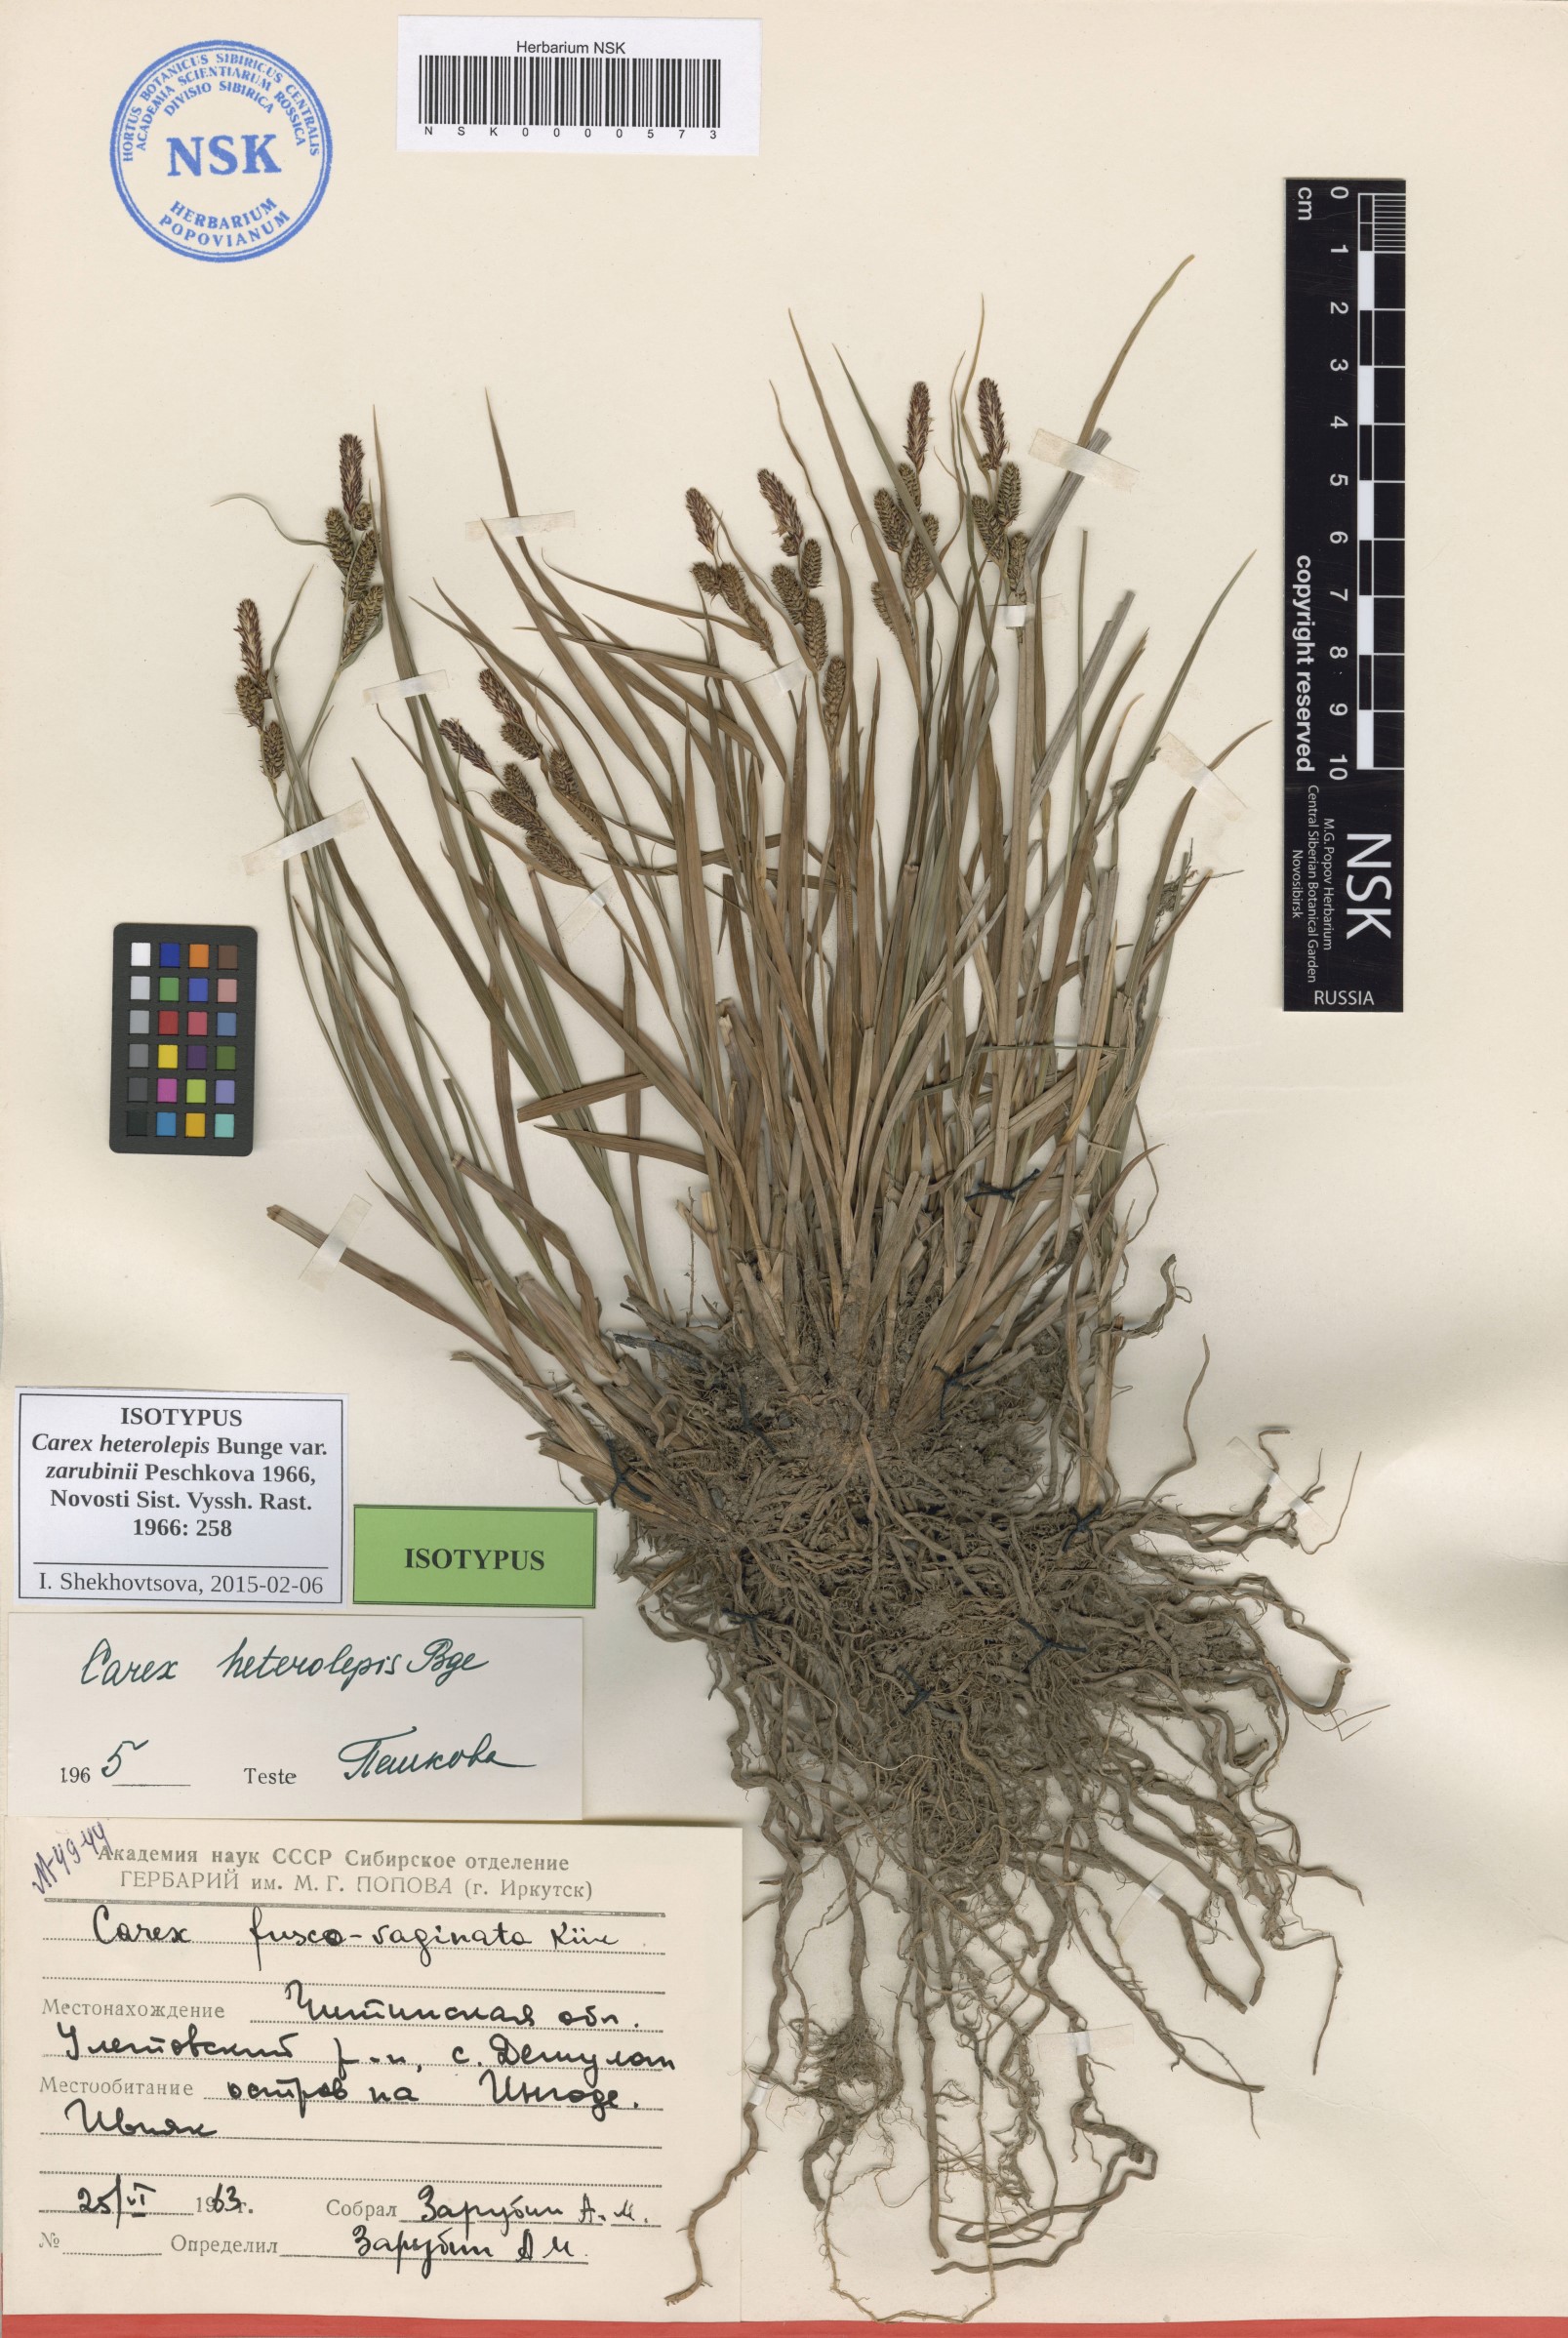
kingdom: Plantae
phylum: Tracheophyta
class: Liliopsida
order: Poales
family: Cyperaceae
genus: Carex
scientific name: Carex heterolepis
